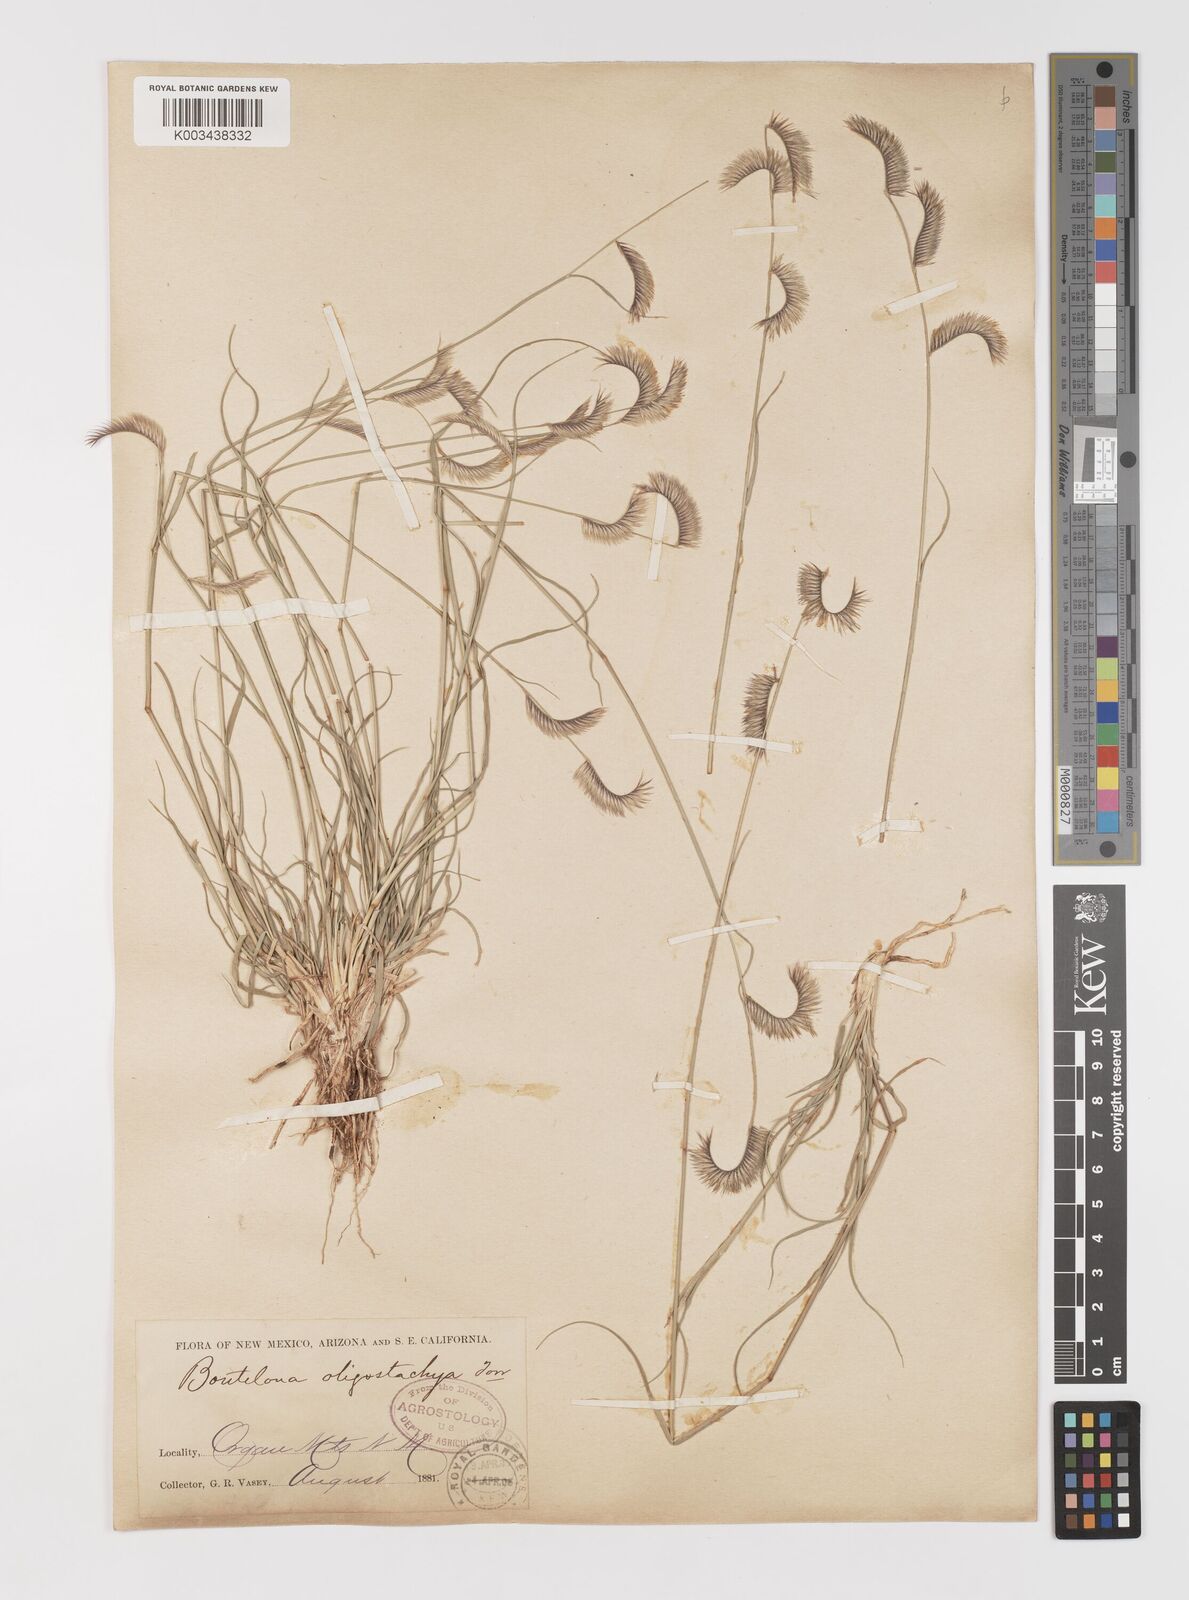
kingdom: Plantae
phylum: Tracheophyta
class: Liliopsida
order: Poales
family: Poaceae
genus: Bouteloua
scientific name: Bouteloua
